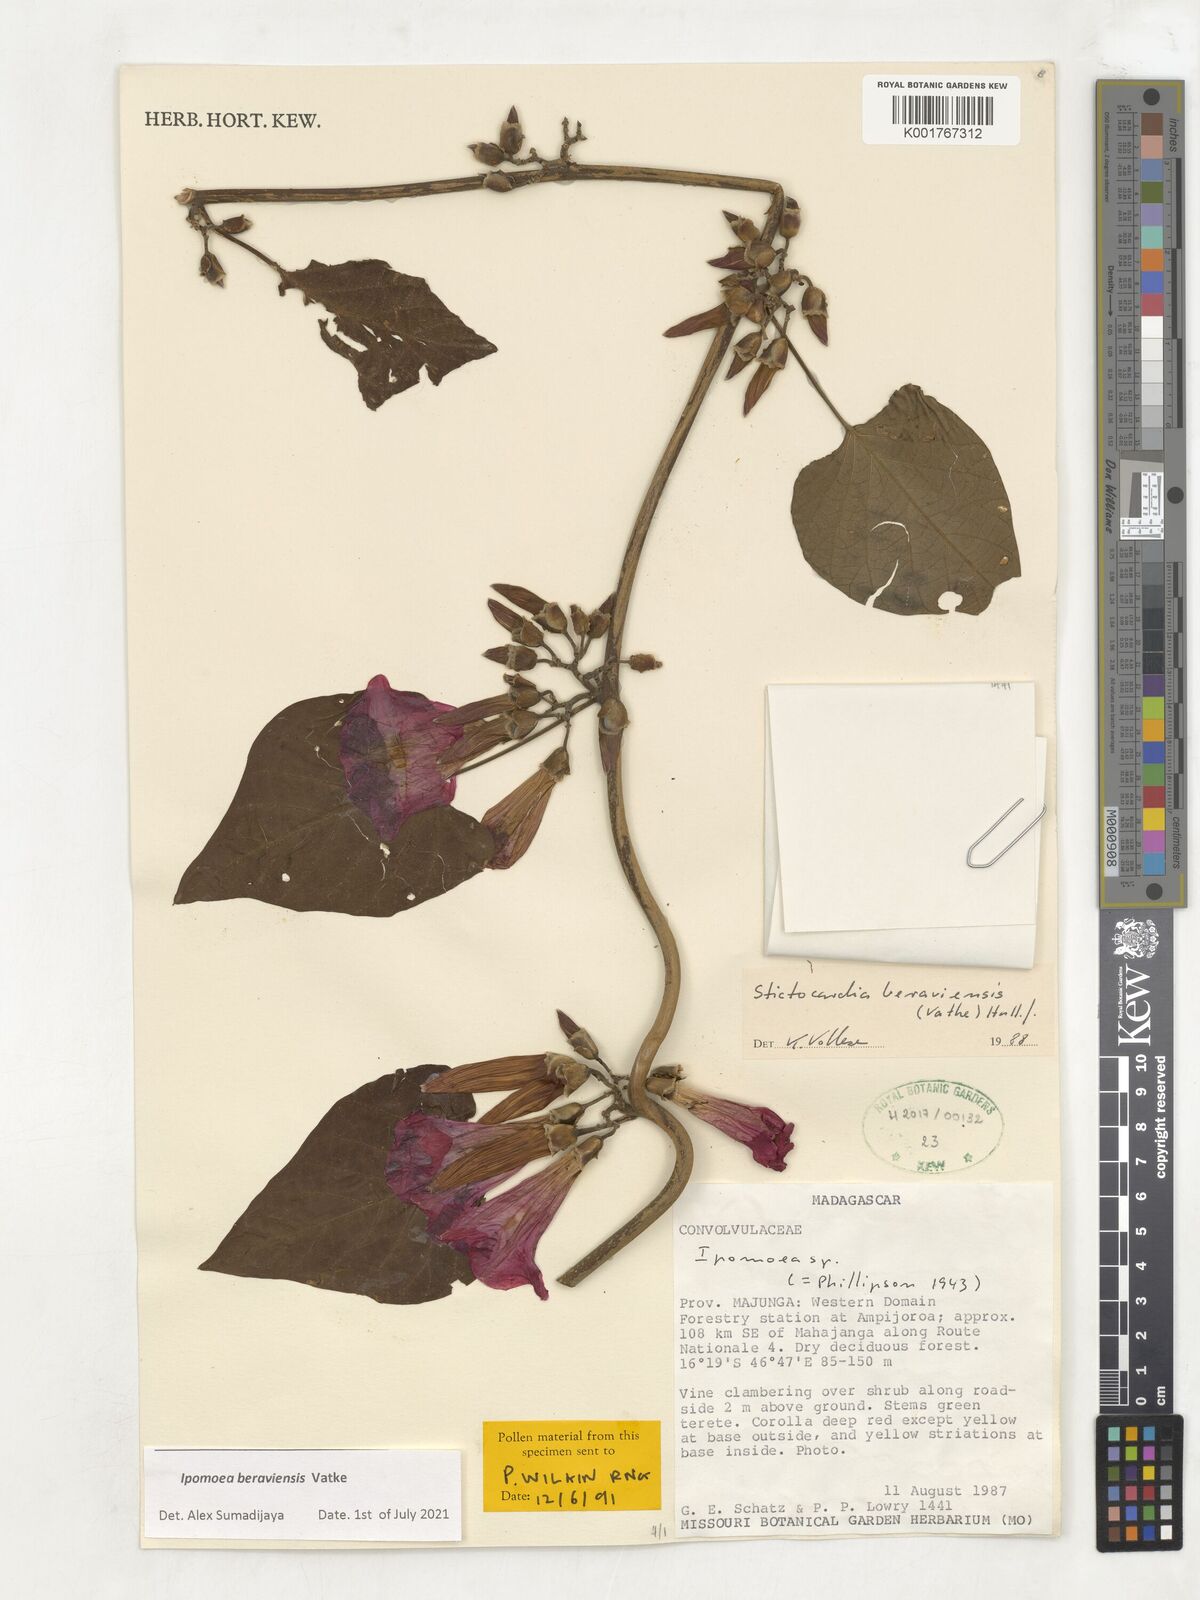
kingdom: Plantae
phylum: Tracheophyta
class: Magnoliopsida
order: Solanales
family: Convolvulaceae
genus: Stictocardia
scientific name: Stictocardia beraviensis
